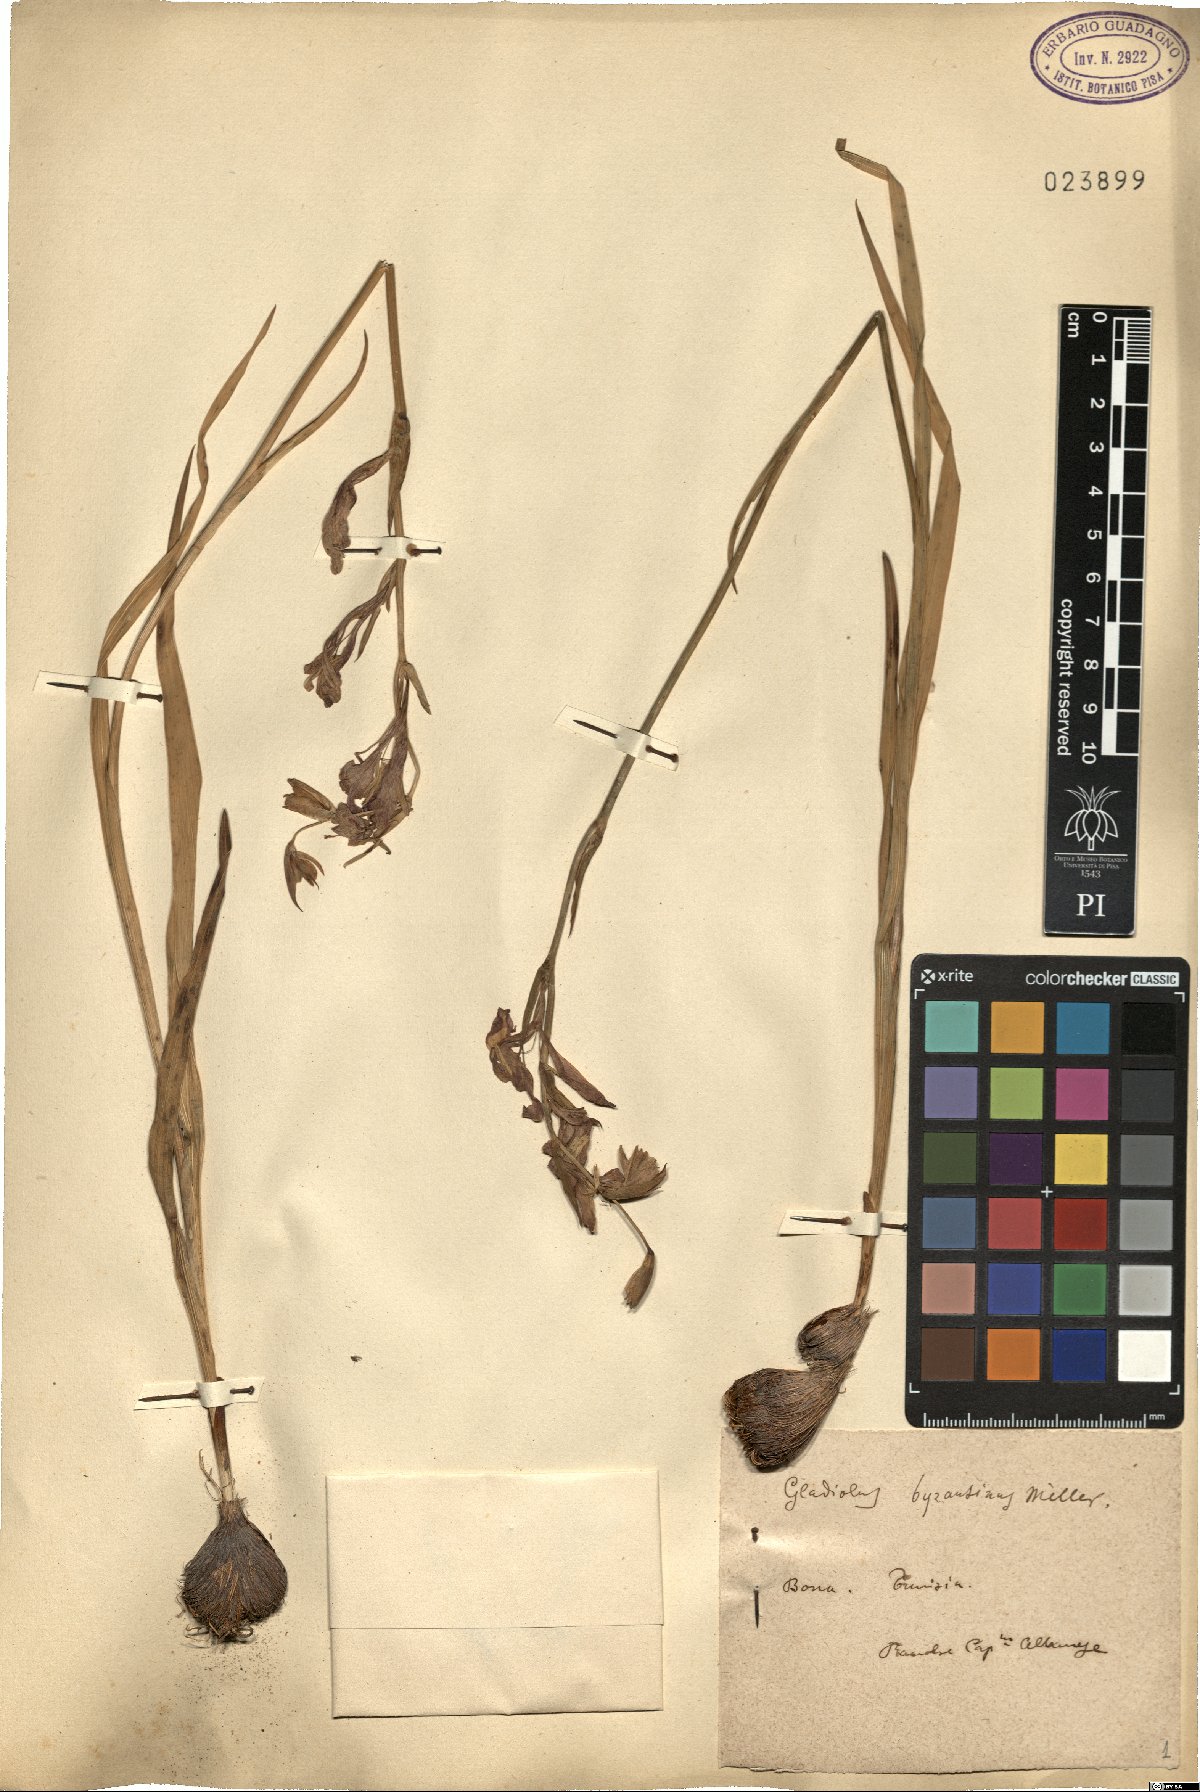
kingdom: Plantae
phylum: Tracheophyta
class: Liliopsida
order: Asparagales
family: Iridaceae
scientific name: Iridaceae
